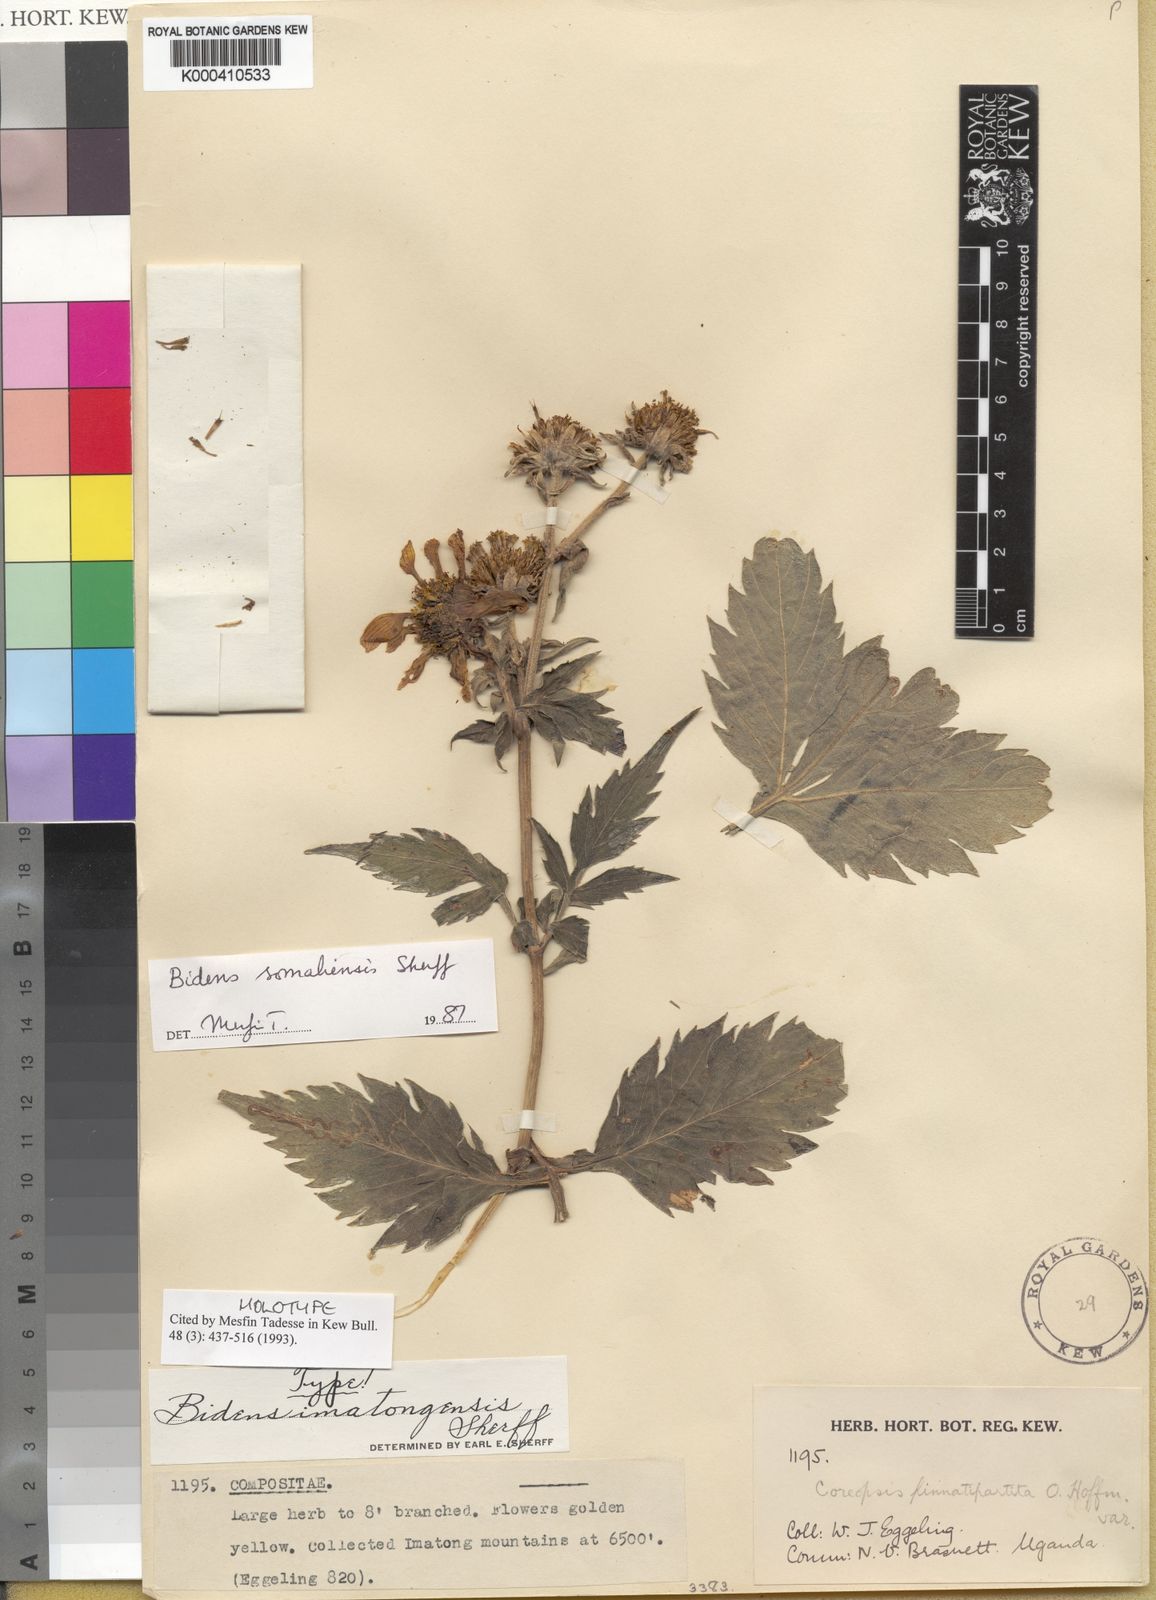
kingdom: Plantae
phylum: Tracheophyta
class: Magnoliopsida
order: Asterales
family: Asteraceae
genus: Bidens
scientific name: Bidens somaliensis
